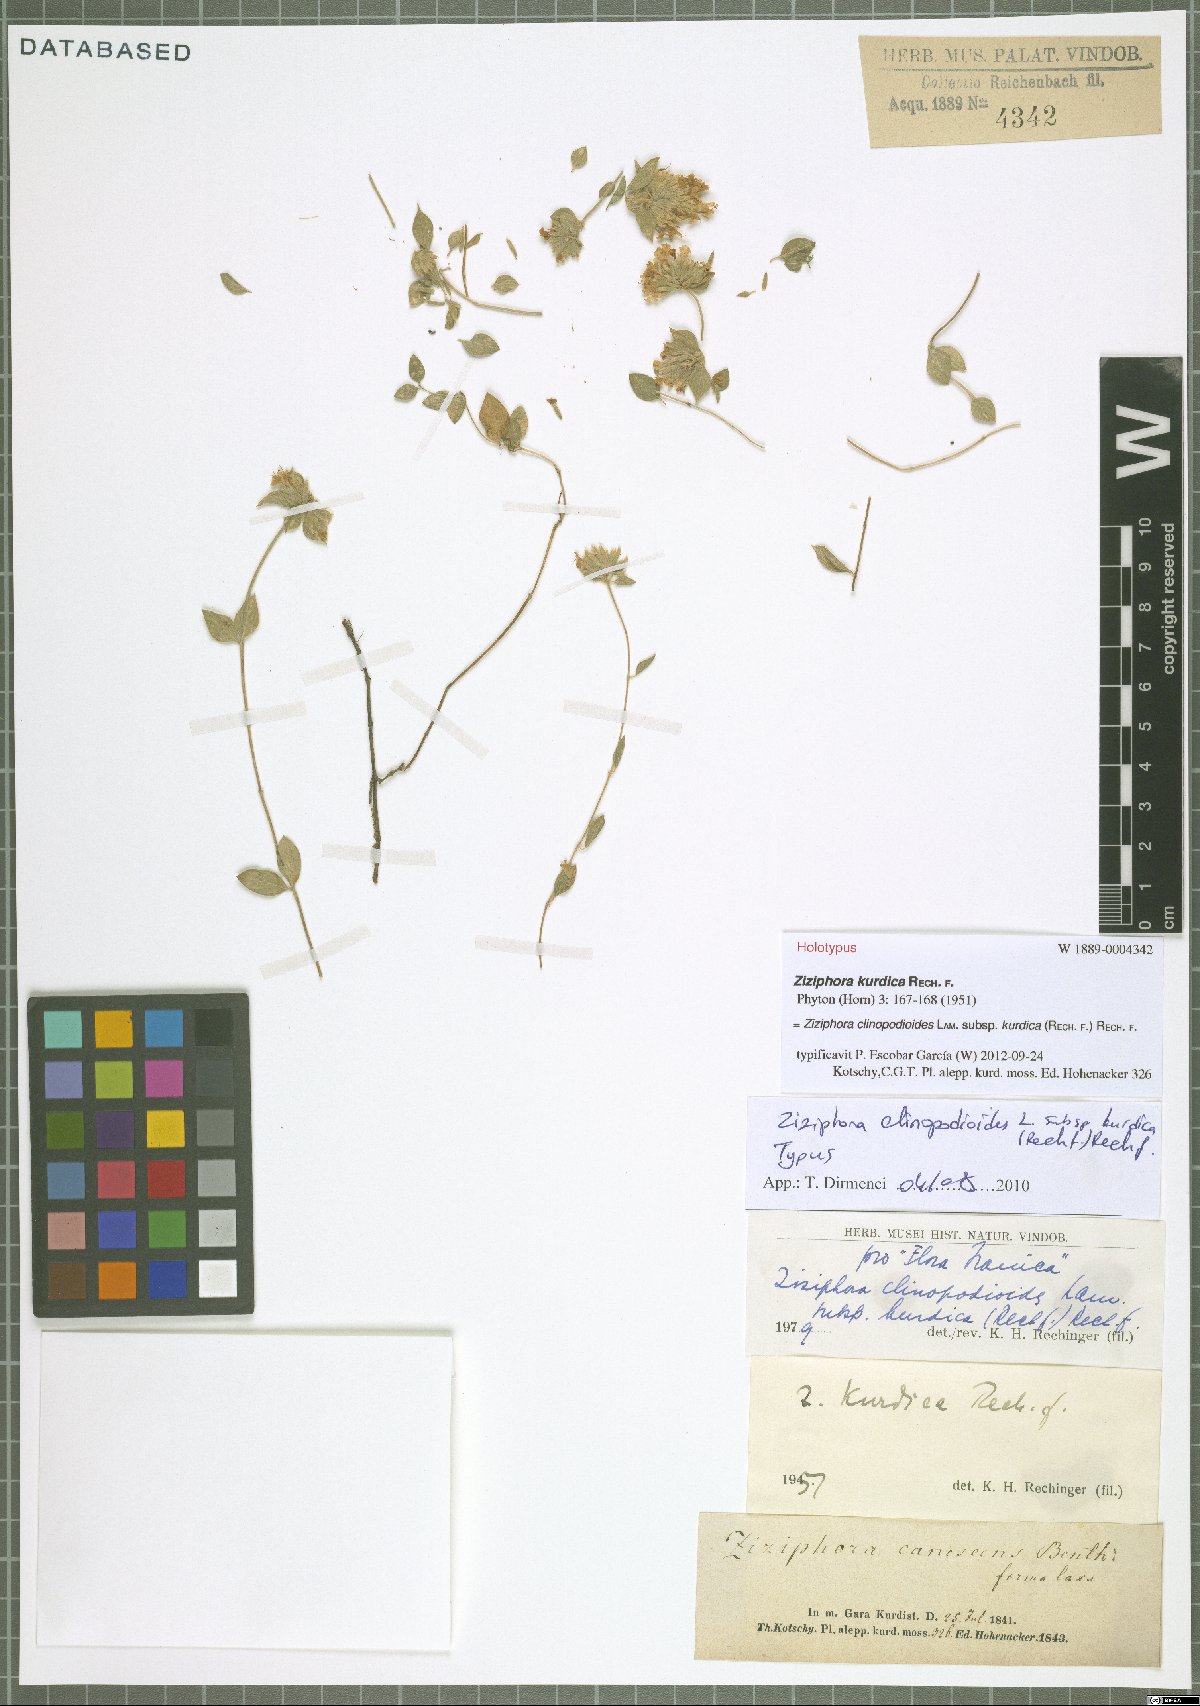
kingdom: Plantae
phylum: Tracheophyta
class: Magnoliopsida
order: Lamiales
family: Lamiaceae
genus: Ziziphora
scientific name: Ziziphora clinopodioides
